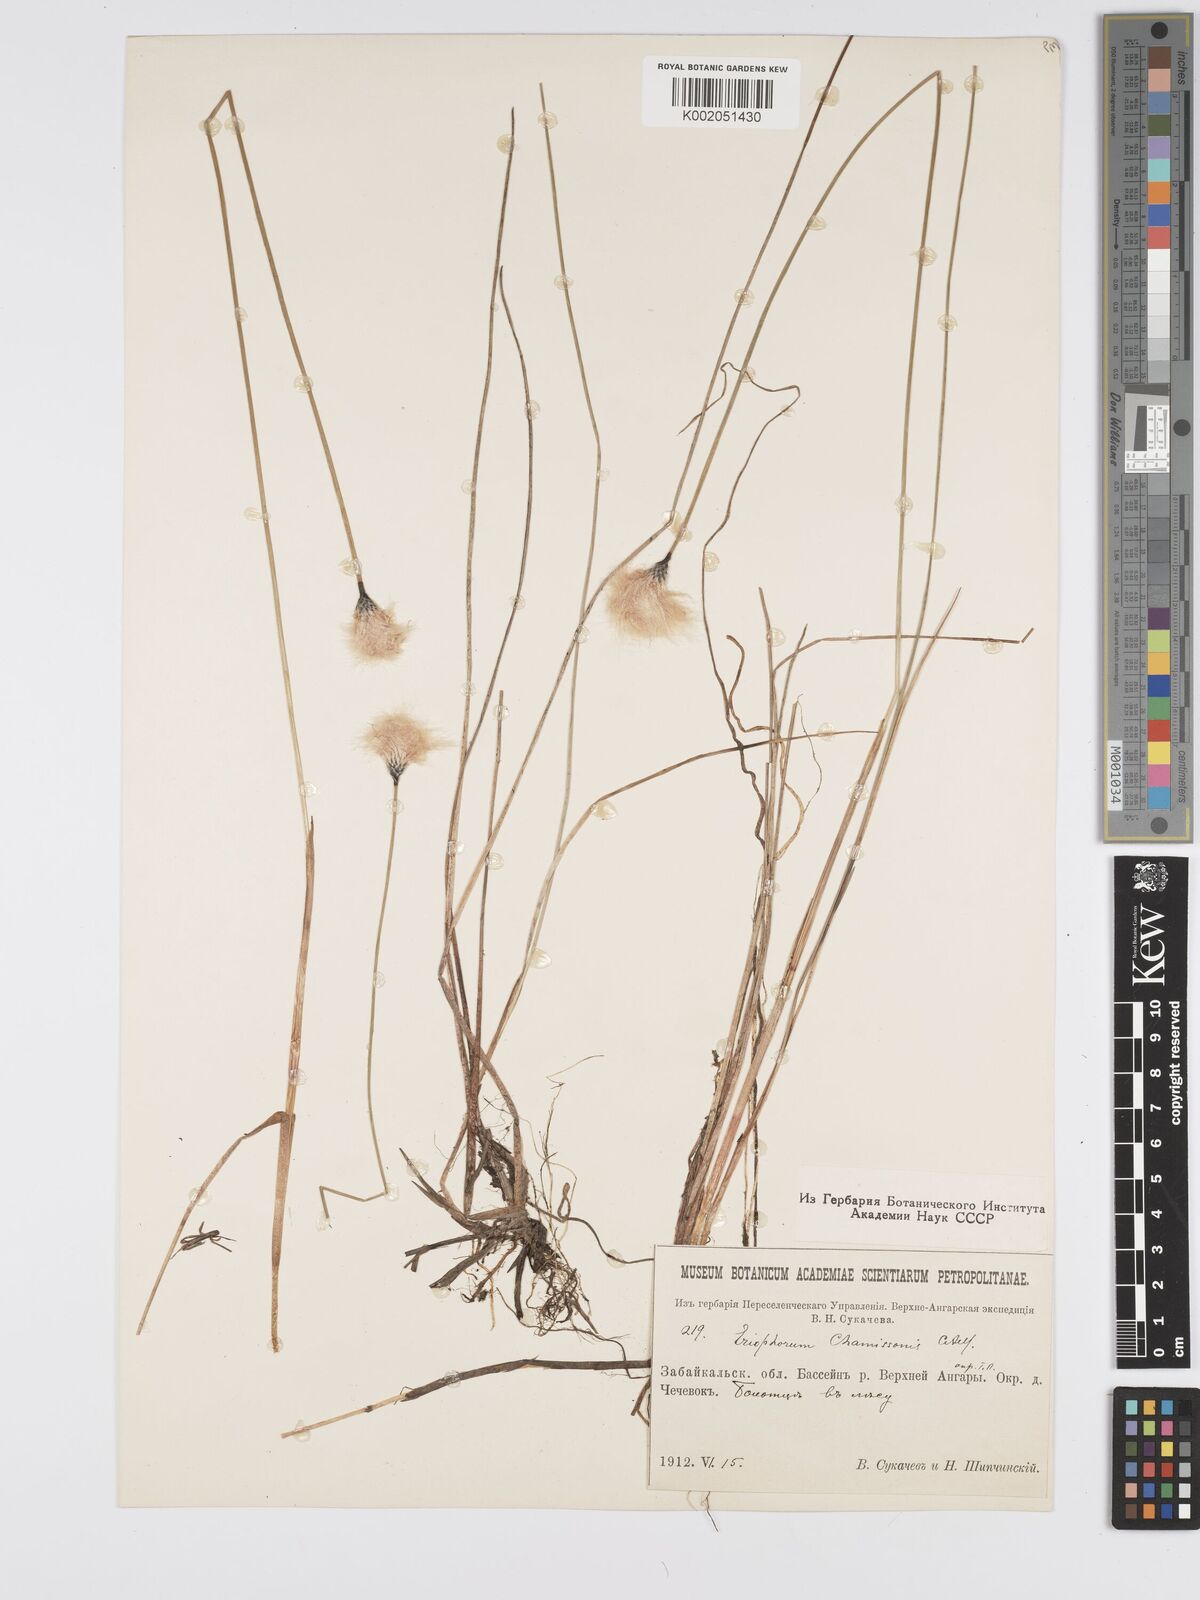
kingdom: Plantae
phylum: Tracheophyta
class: Liliopsida
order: Poales
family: Cyperaceae
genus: Eriophorum
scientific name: Eriophorum chamissonis
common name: Chamisso's cottongrass
